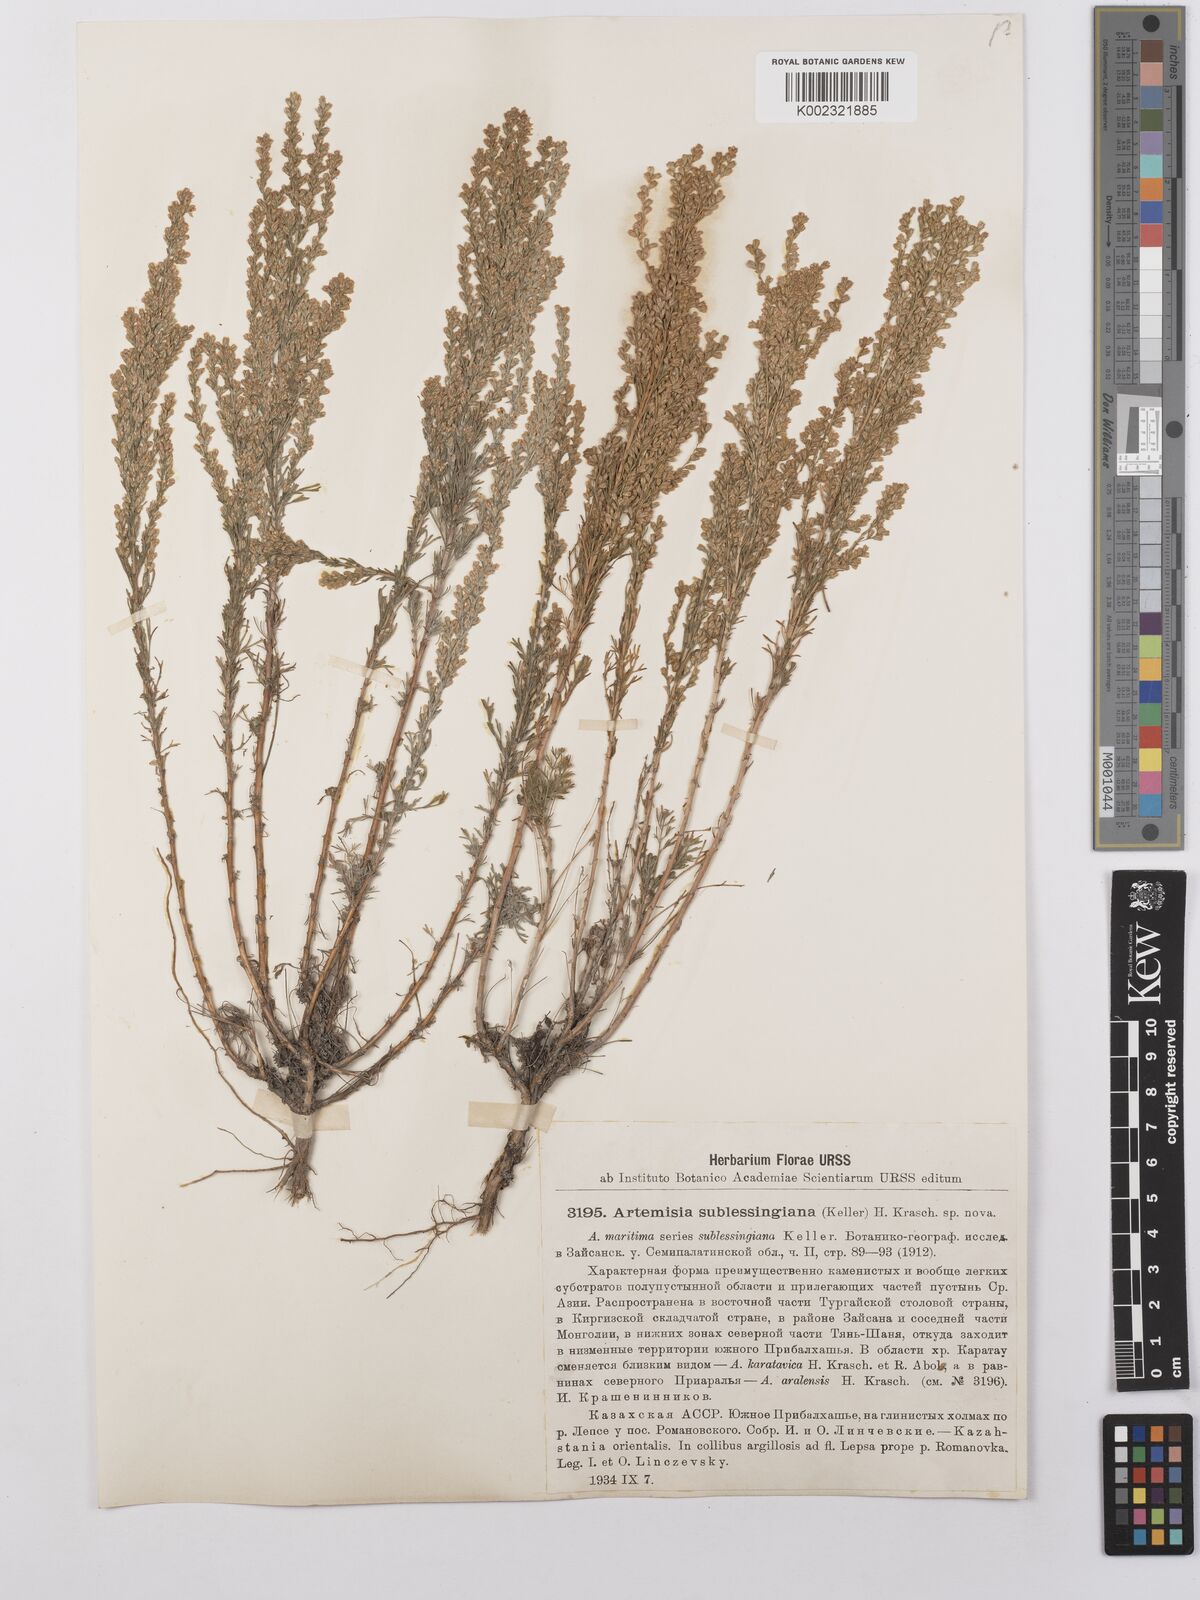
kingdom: Plantae
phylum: Tracheophyta
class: Magnoliopsida
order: Asterales
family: Asteraceae
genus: Artemisia
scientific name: Artemisia sublessingiana
